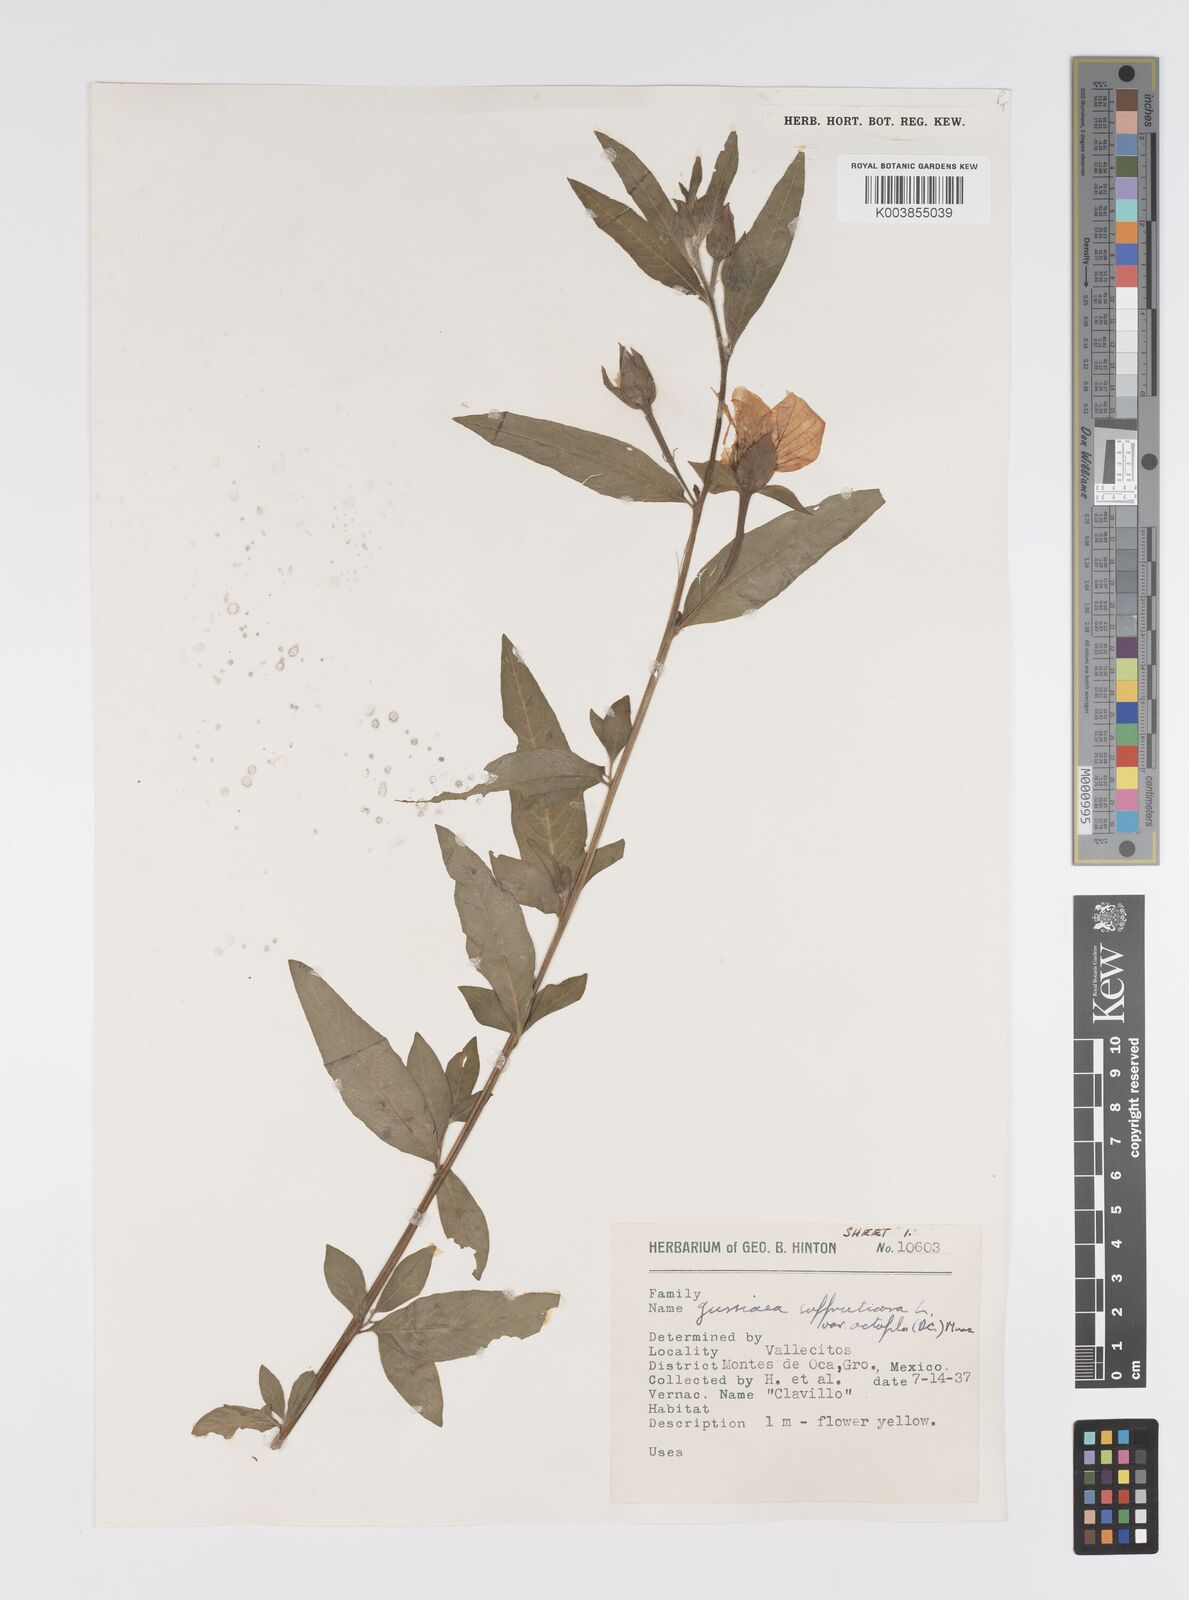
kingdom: Plantae
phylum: Tracheophyta
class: Magnoliopsida
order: Myrtales
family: Onagraceae
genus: Ludwigia
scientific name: Ludwigia octovalvis
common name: Water-primrose
